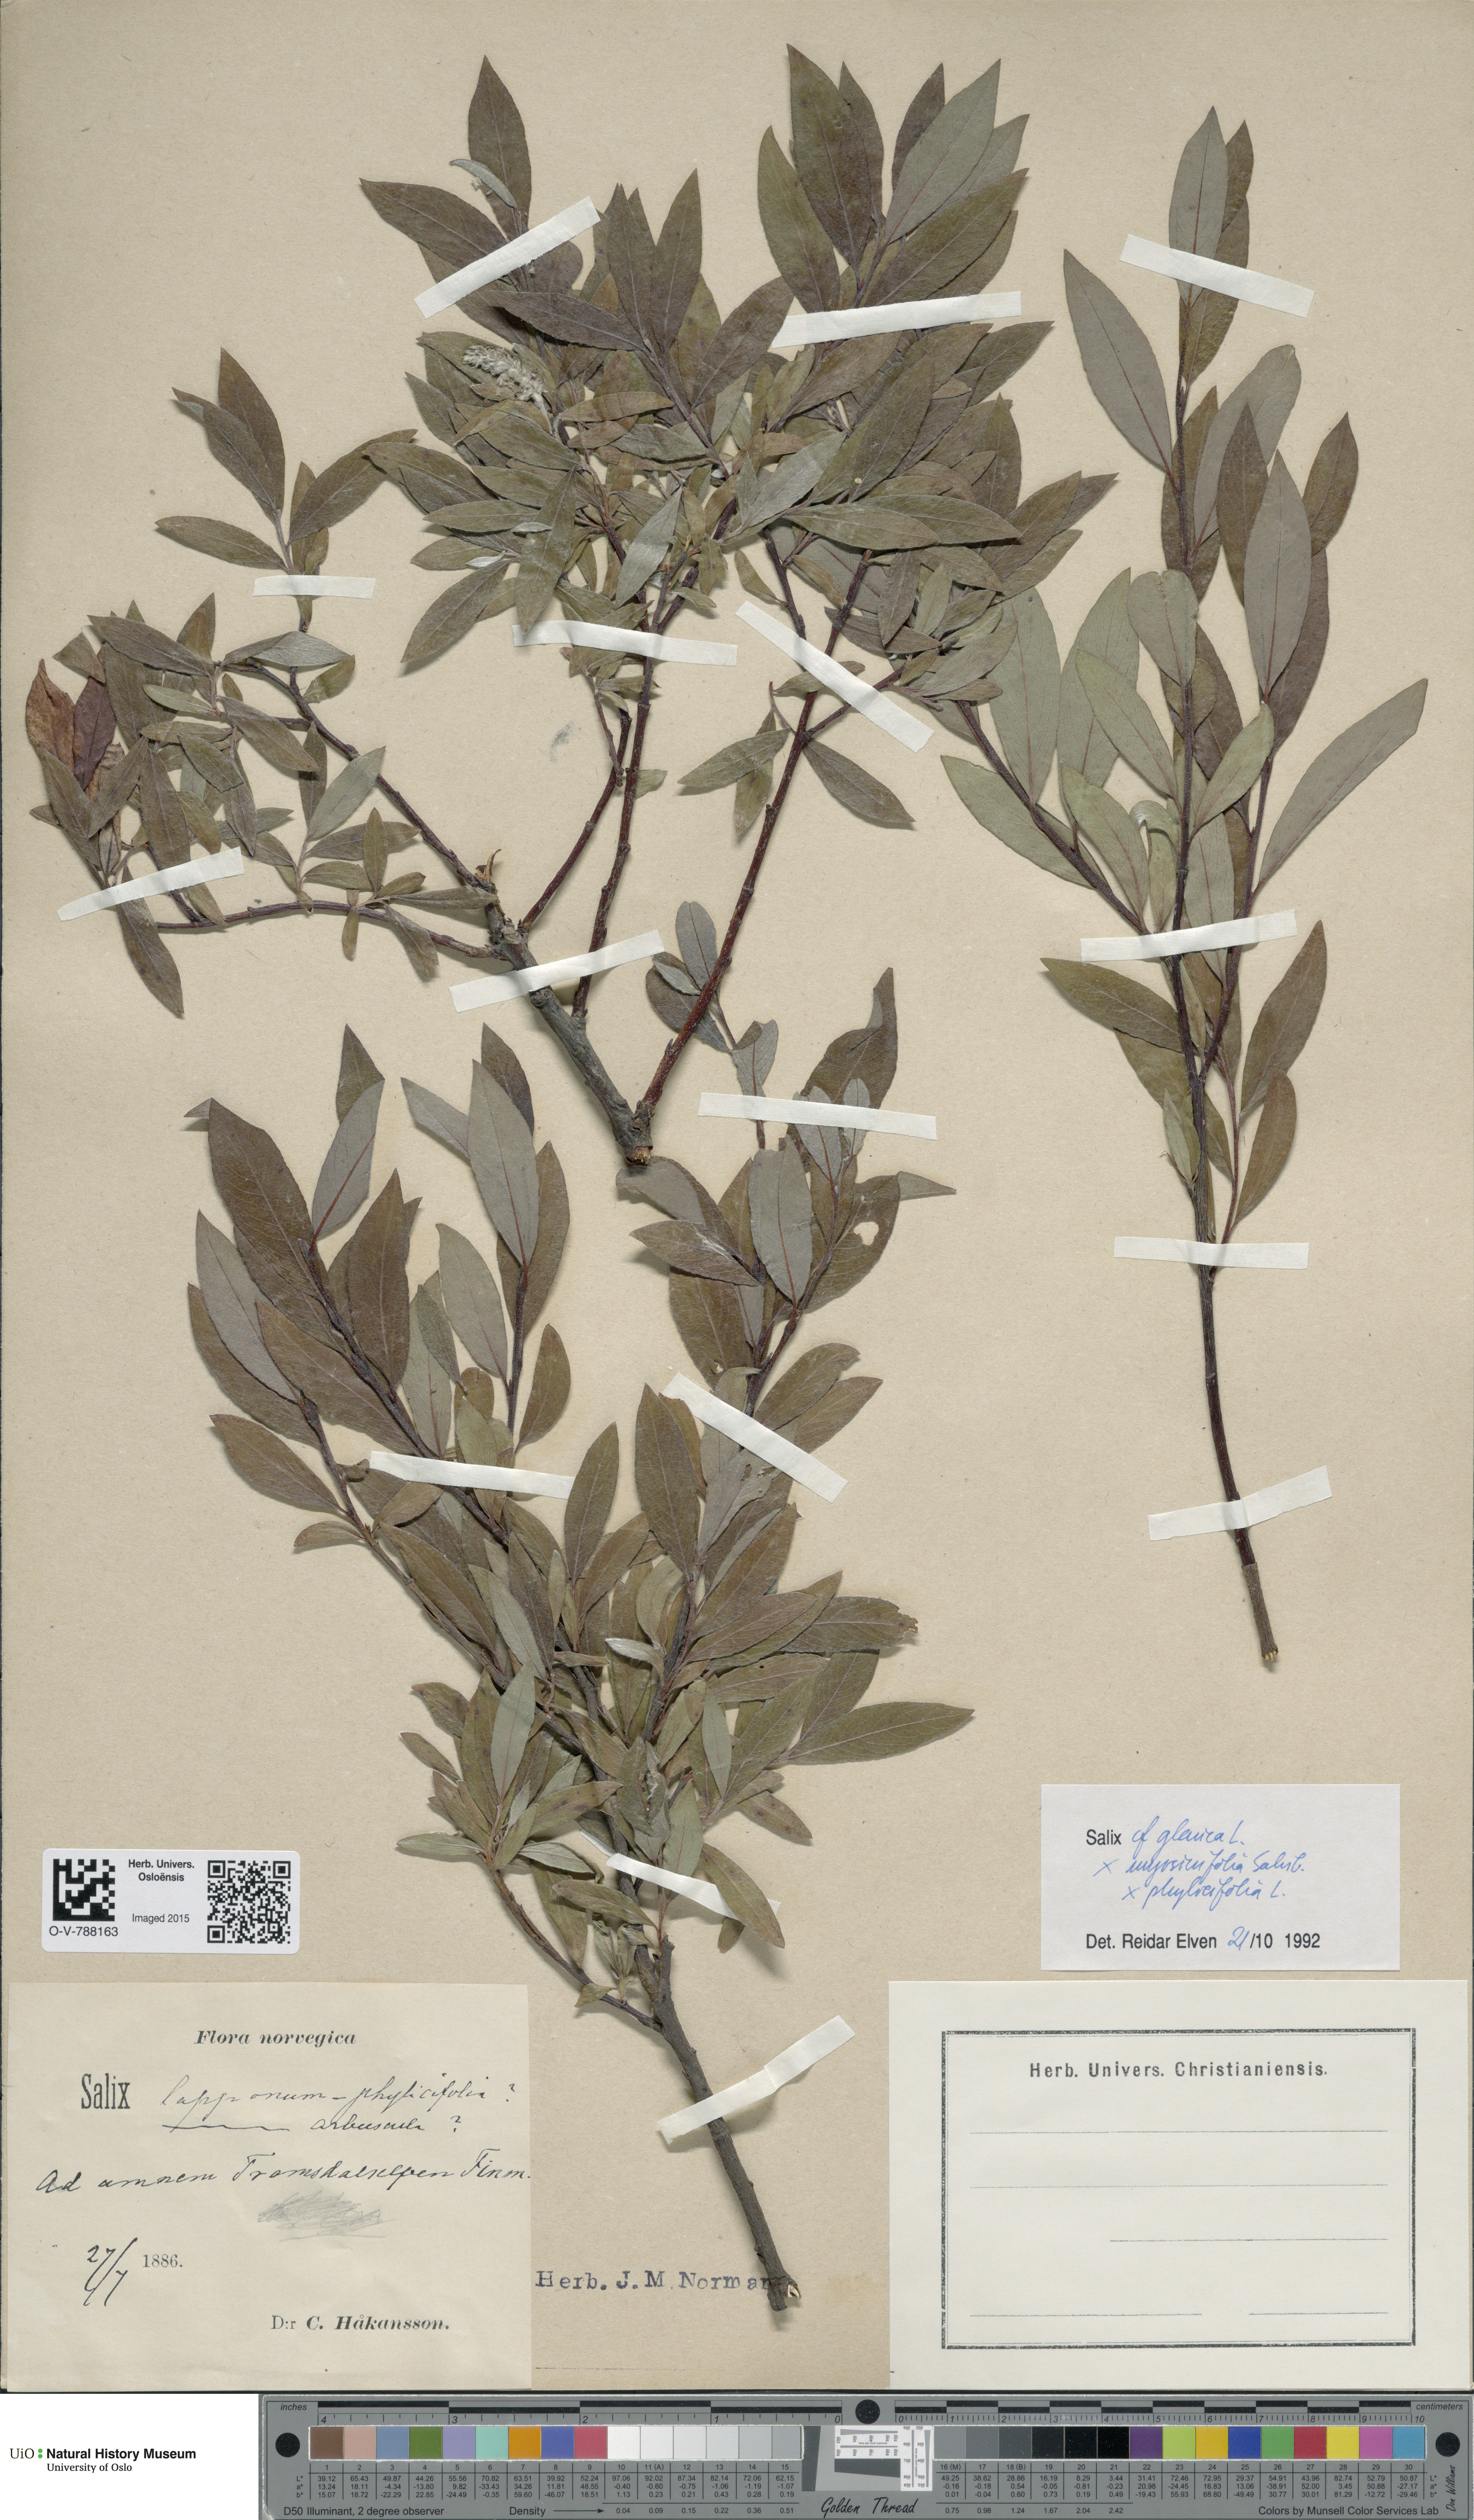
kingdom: Plantae
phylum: Tracheophyta
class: Magnoliopsida
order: Malpighiales
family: Salicaceae
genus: Salix
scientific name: Salix
